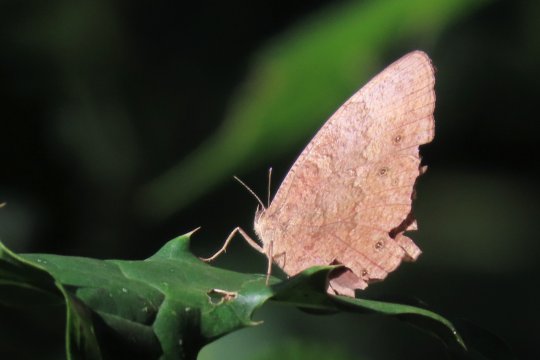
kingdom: Animalia
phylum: Arthropoda
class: Insecta
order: Lepidoptera
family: Nymphalidae
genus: Bicyclus
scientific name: Bicyclus dentata
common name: Dentate Bush Brown
